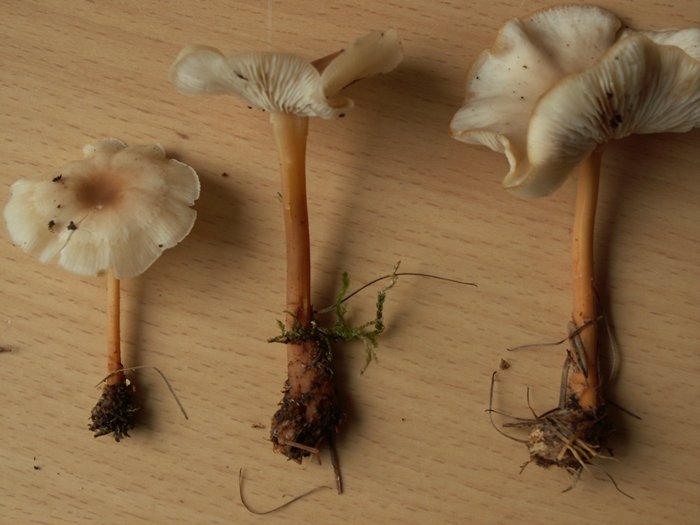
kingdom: Fungi
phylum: Basidiomycota
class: Agaricomycetes
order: Agaricales
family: Omphalotaceae
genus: Gymnopus
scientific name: Gymnopus aquosus
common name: bleg fladhat
